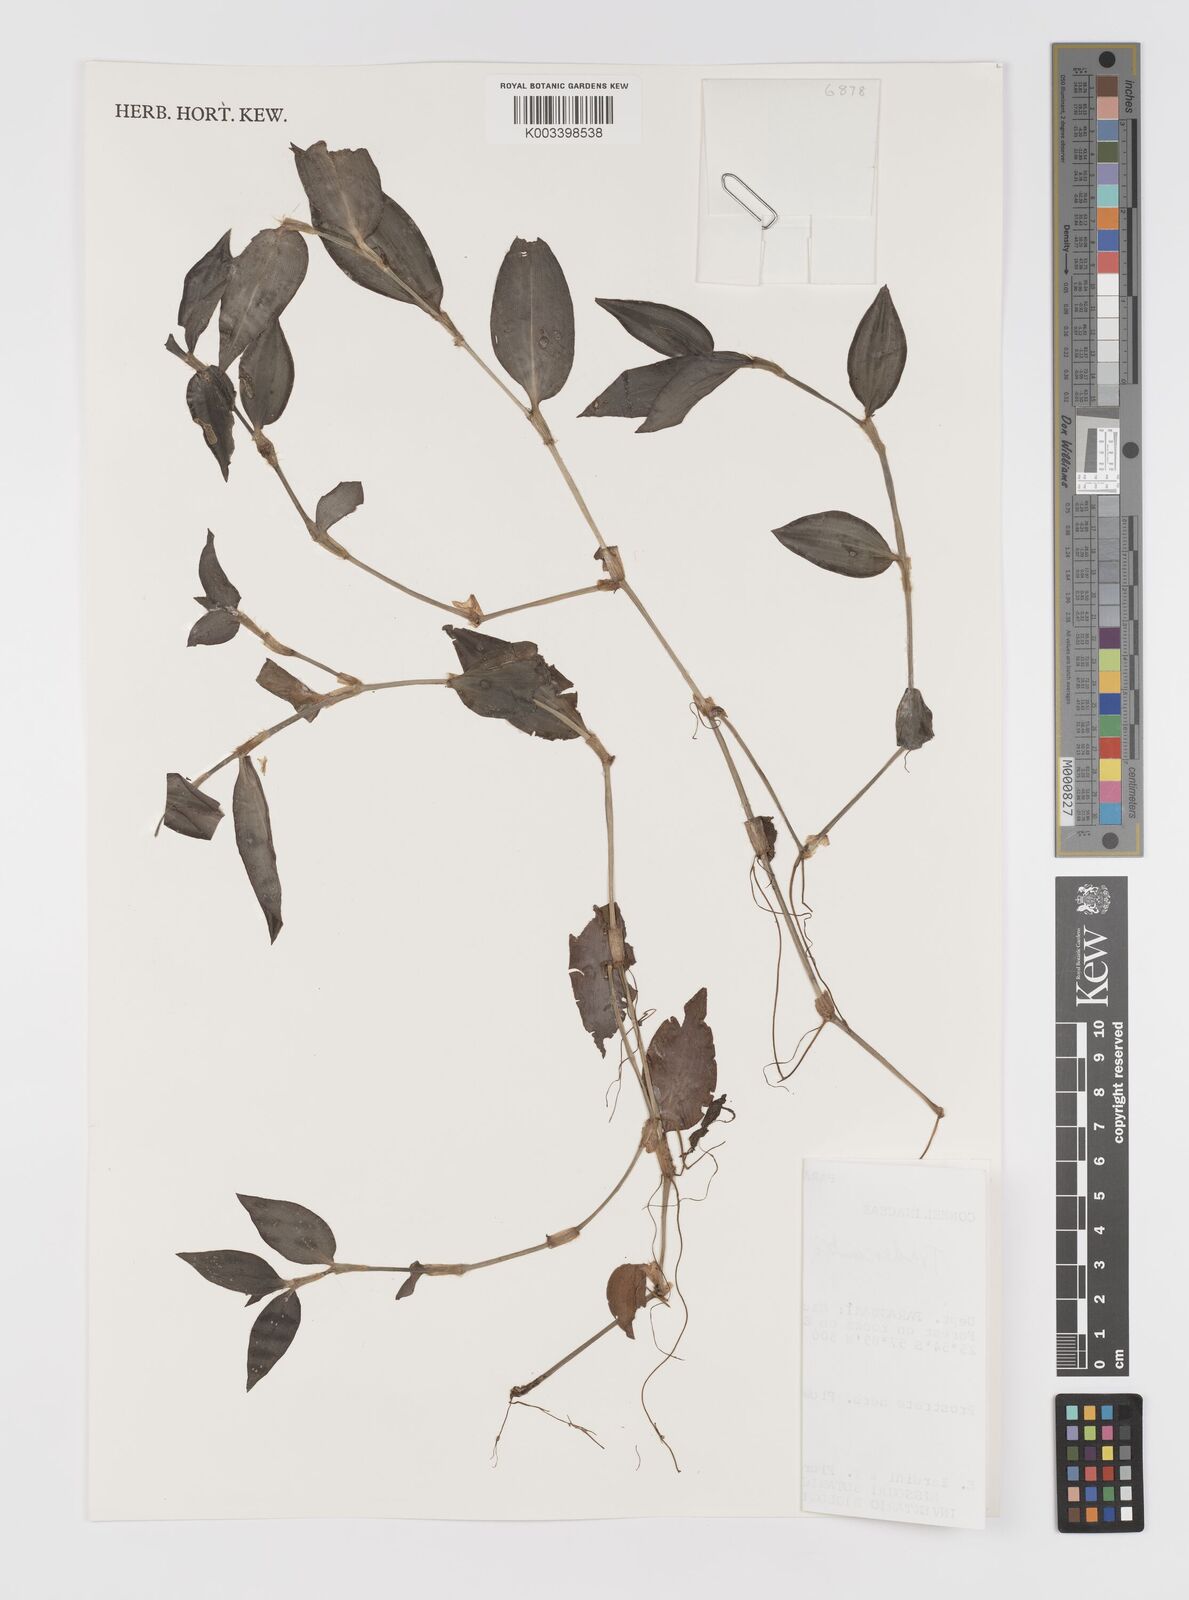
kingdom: Plantae
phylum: Tracheophyta
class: Liliopsida
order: Commelinales
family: Commelinaceae
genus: Tradescantia
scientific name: Tradescantia zebrina
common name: Inchplant
